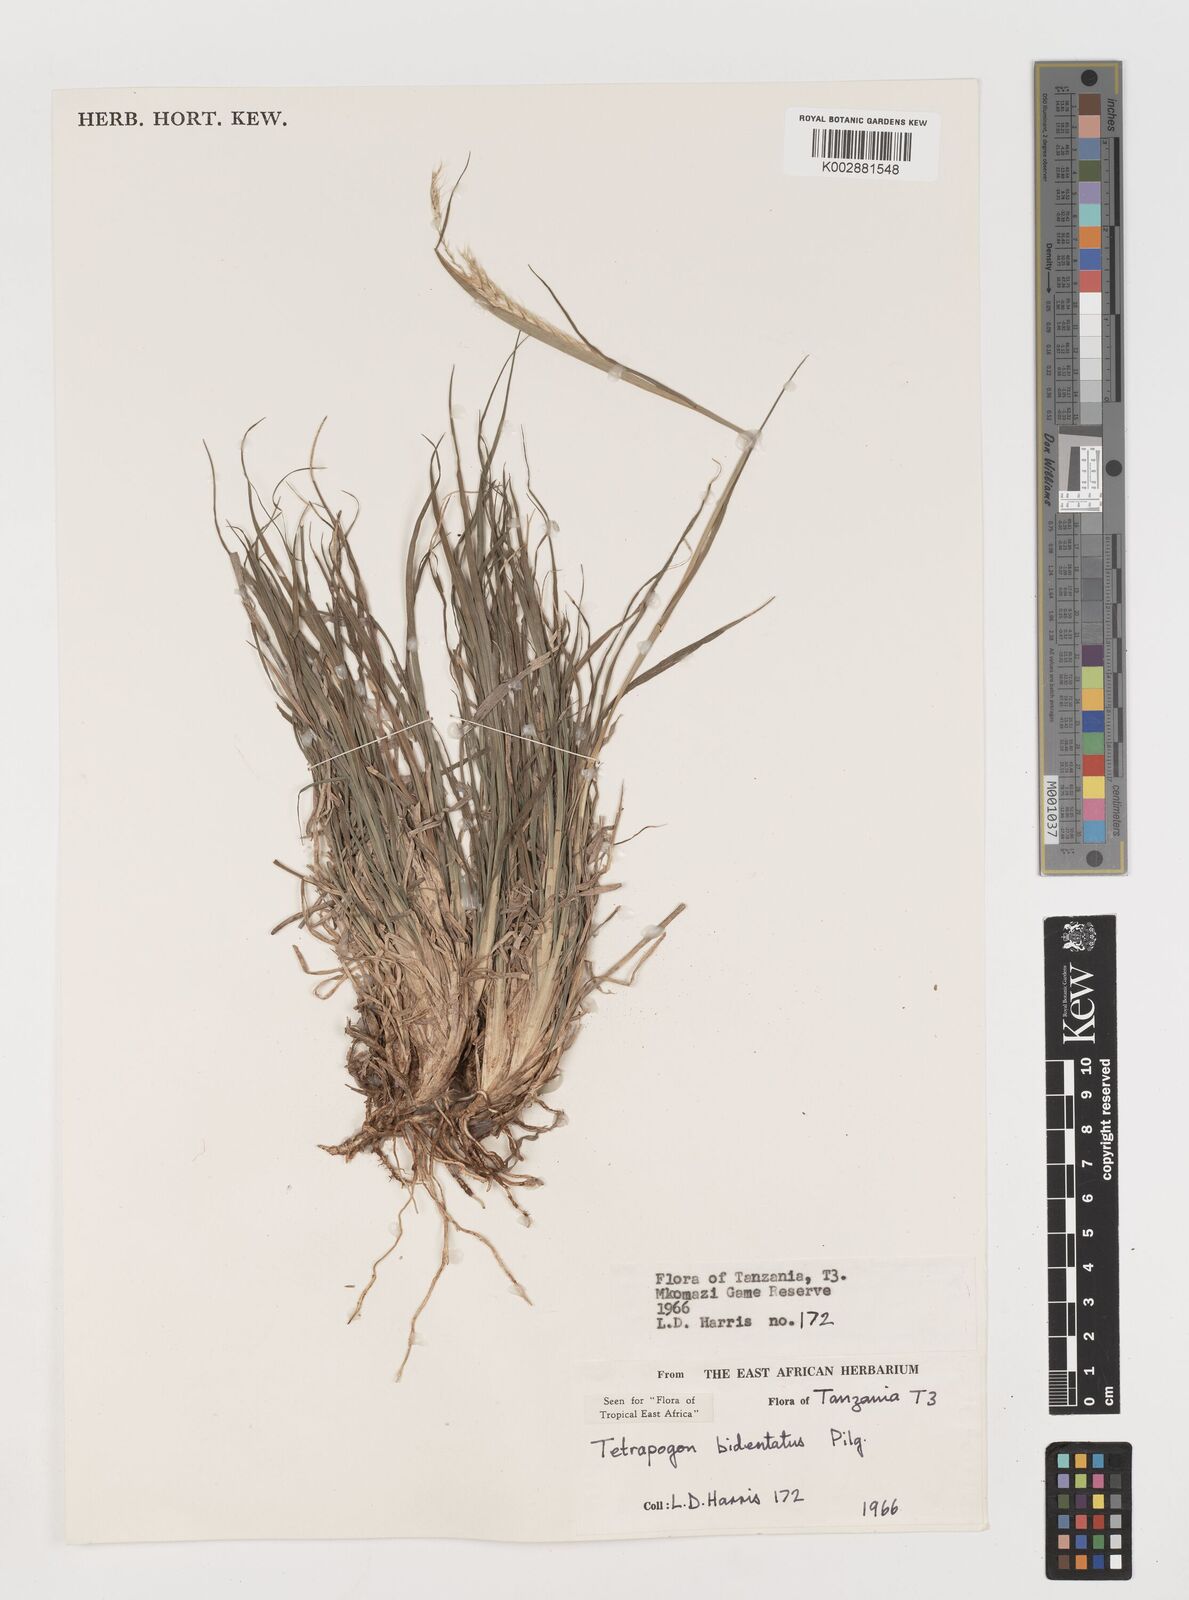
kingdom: Plantae
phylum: Tracheophyta
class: Liliopsida
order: Poales
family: Poaceae
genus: Tetrapogon
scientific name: Tetrapogon bidentatus
